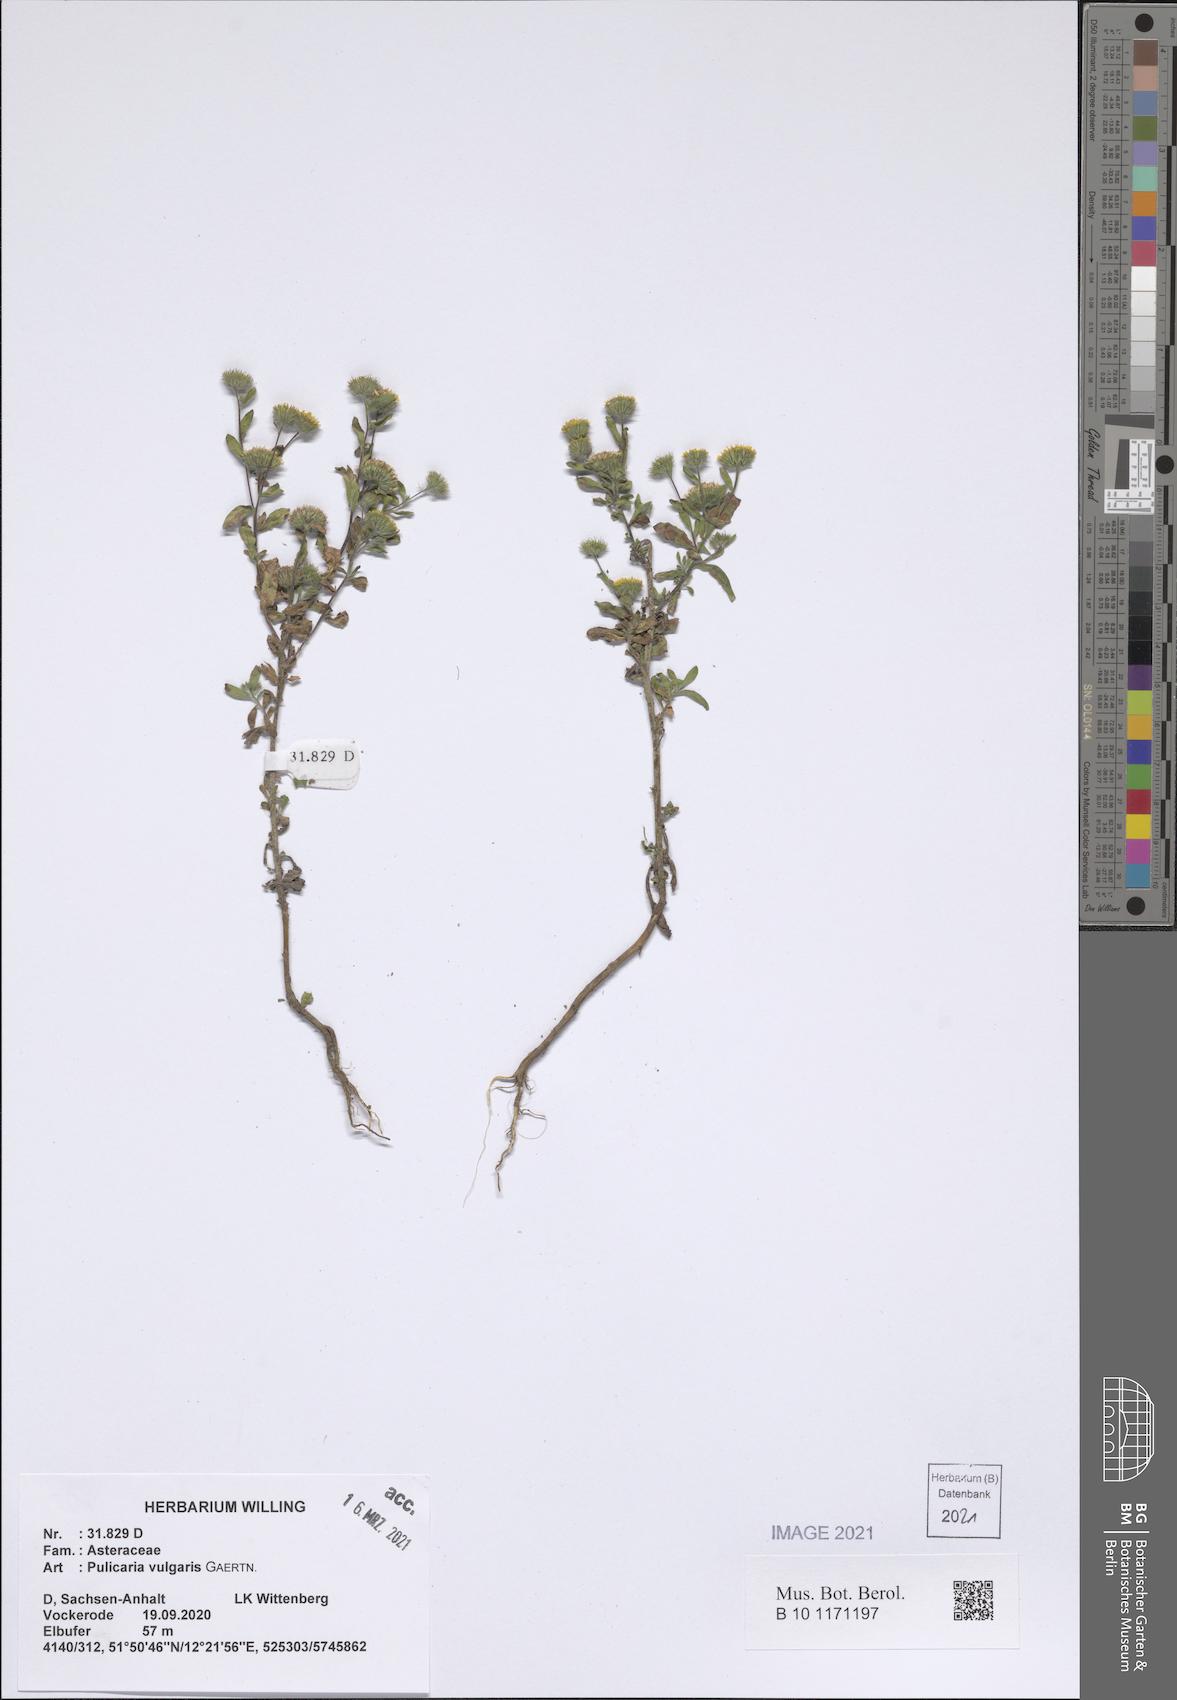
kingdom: Plantae
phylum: Tracheophyta
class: Magnoliopsida
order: Asterales
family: Asteraceae
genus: Pulicaria
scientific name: Pulicaria dysenterica
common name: Common fleabane
